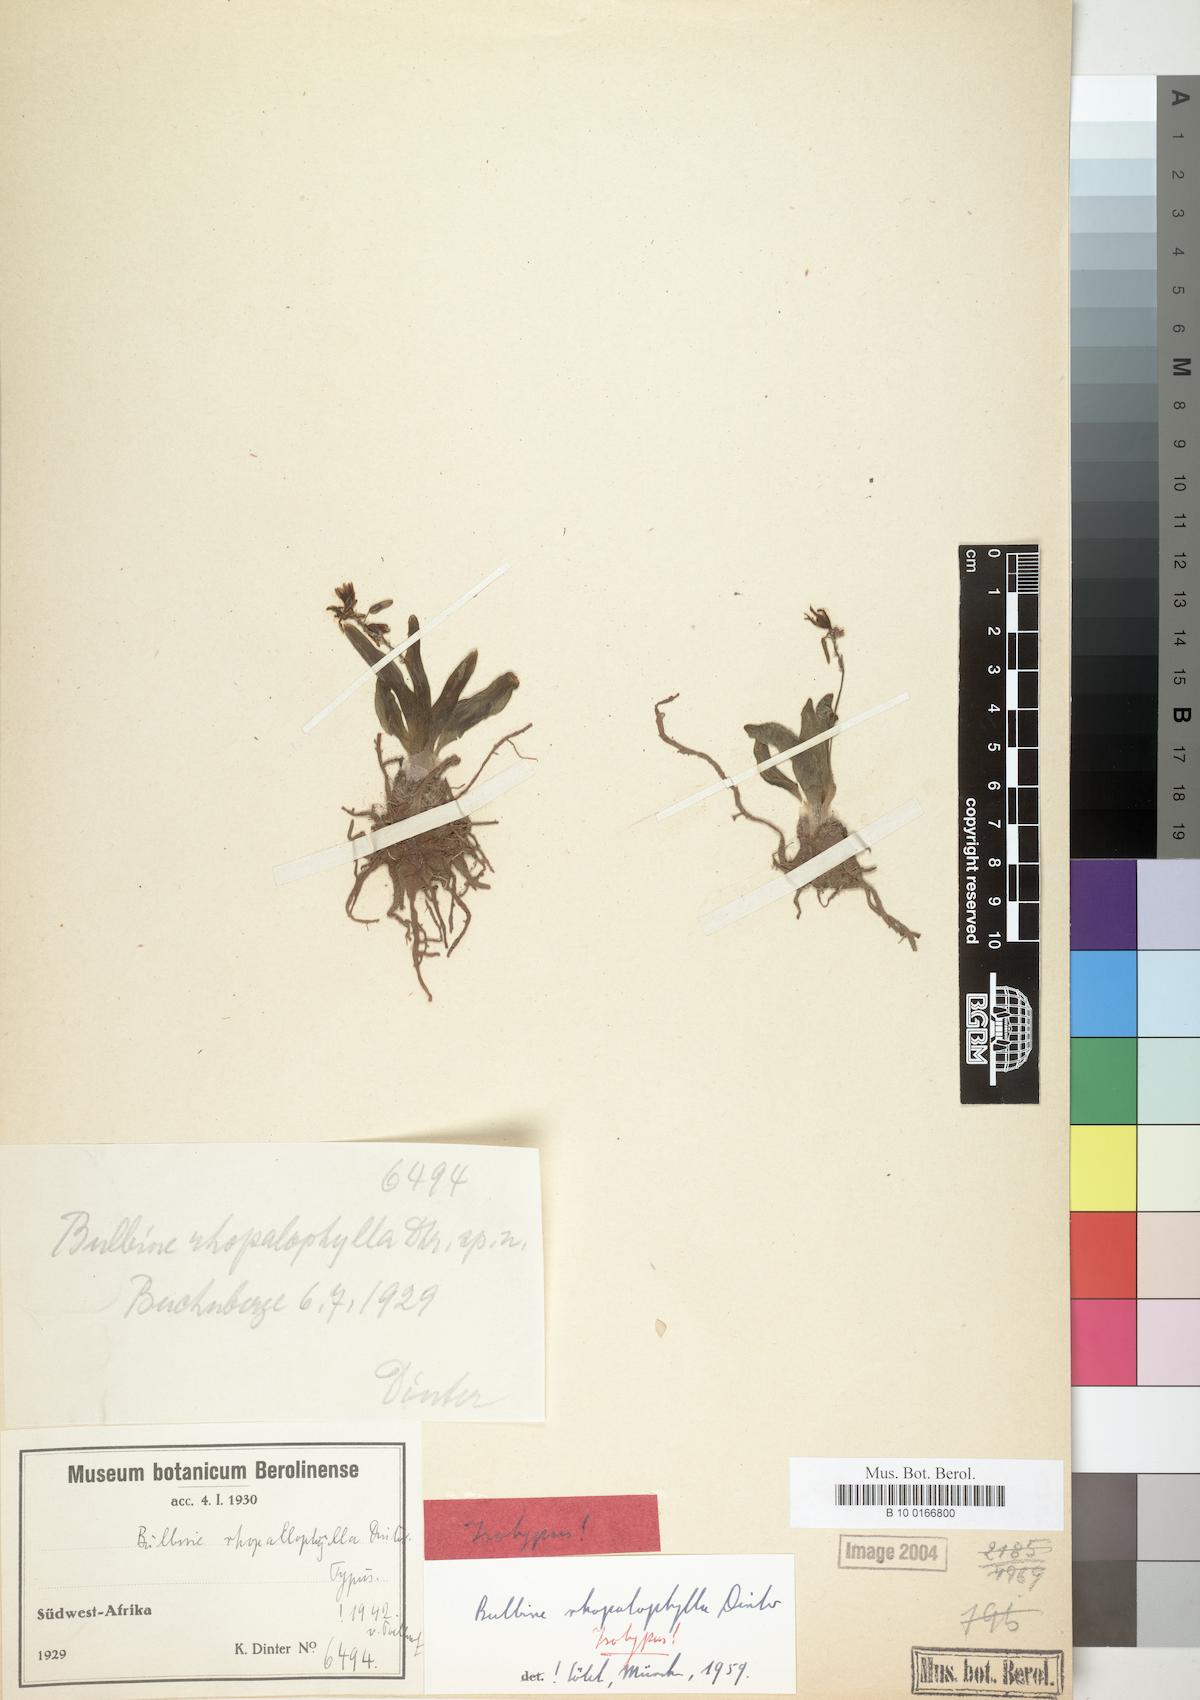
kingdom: Plantae
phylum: Tracheophyta
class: Liliopsida
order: Asparagales
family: Asphodelaceae
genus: Bulbine
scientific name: Bulbine rhopalophylla
